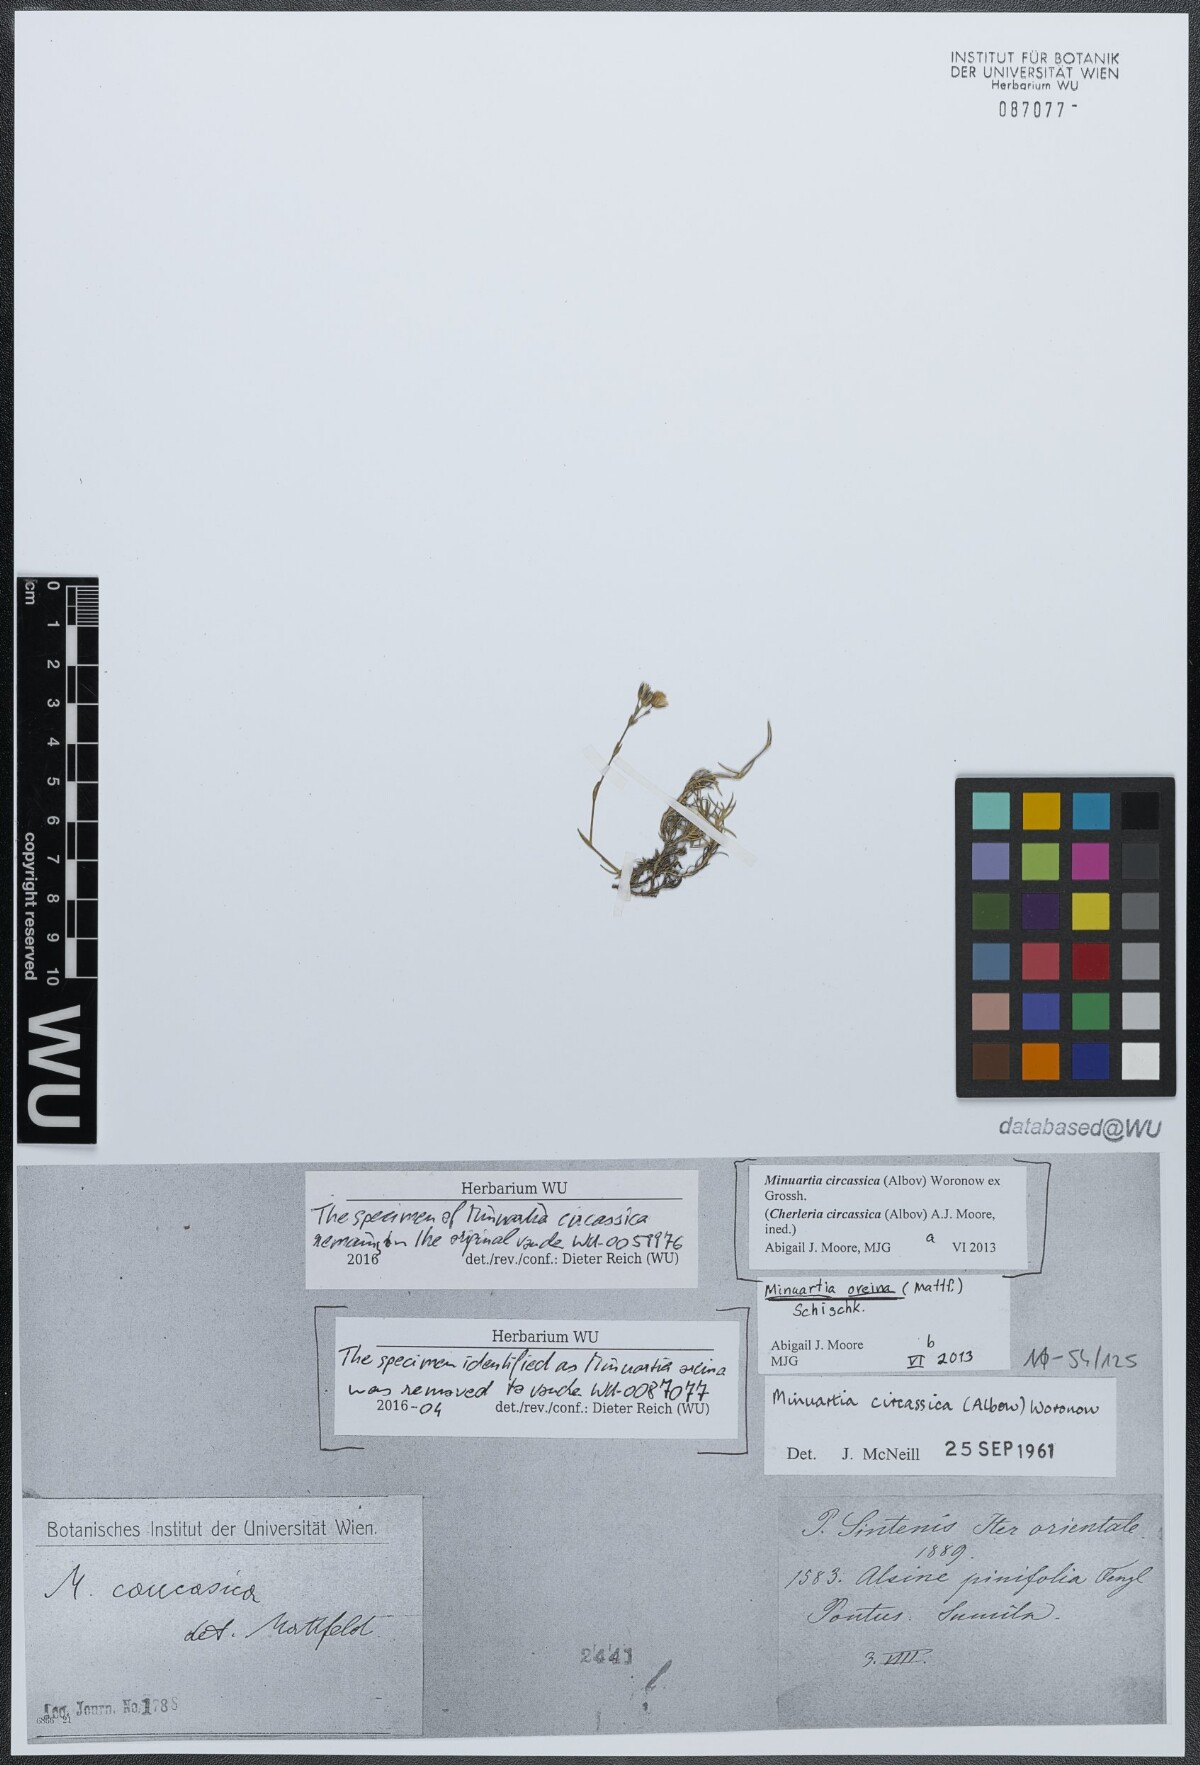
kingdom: Plantae
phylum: Tracheophyta
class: Magnoliopsida
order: Caryophyllales
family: Caryophyllaceae
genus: Minuartia
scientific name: Minuartia hirsuta
